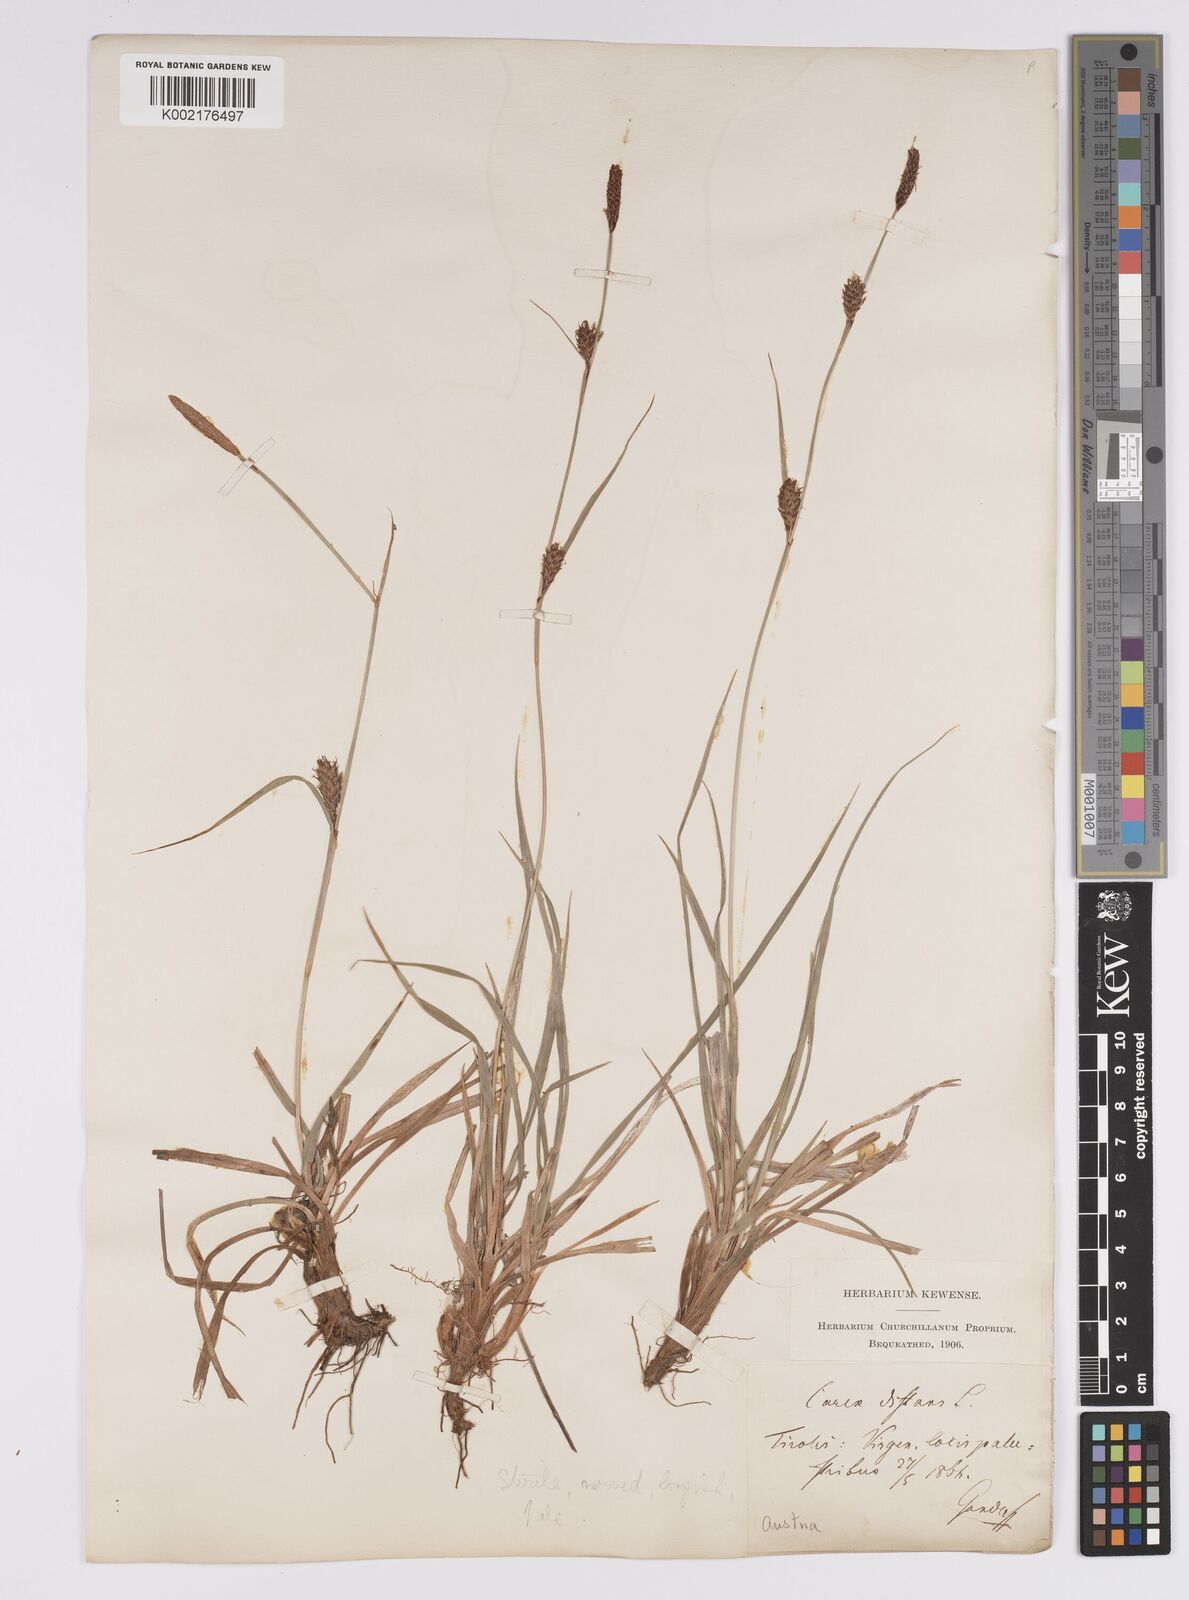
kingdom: Plantae
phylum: Tracheophyta
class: Liliopsida
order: Poales
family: Cyperaceae
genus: Carex
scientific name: Carex distans
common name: Distant sedge
